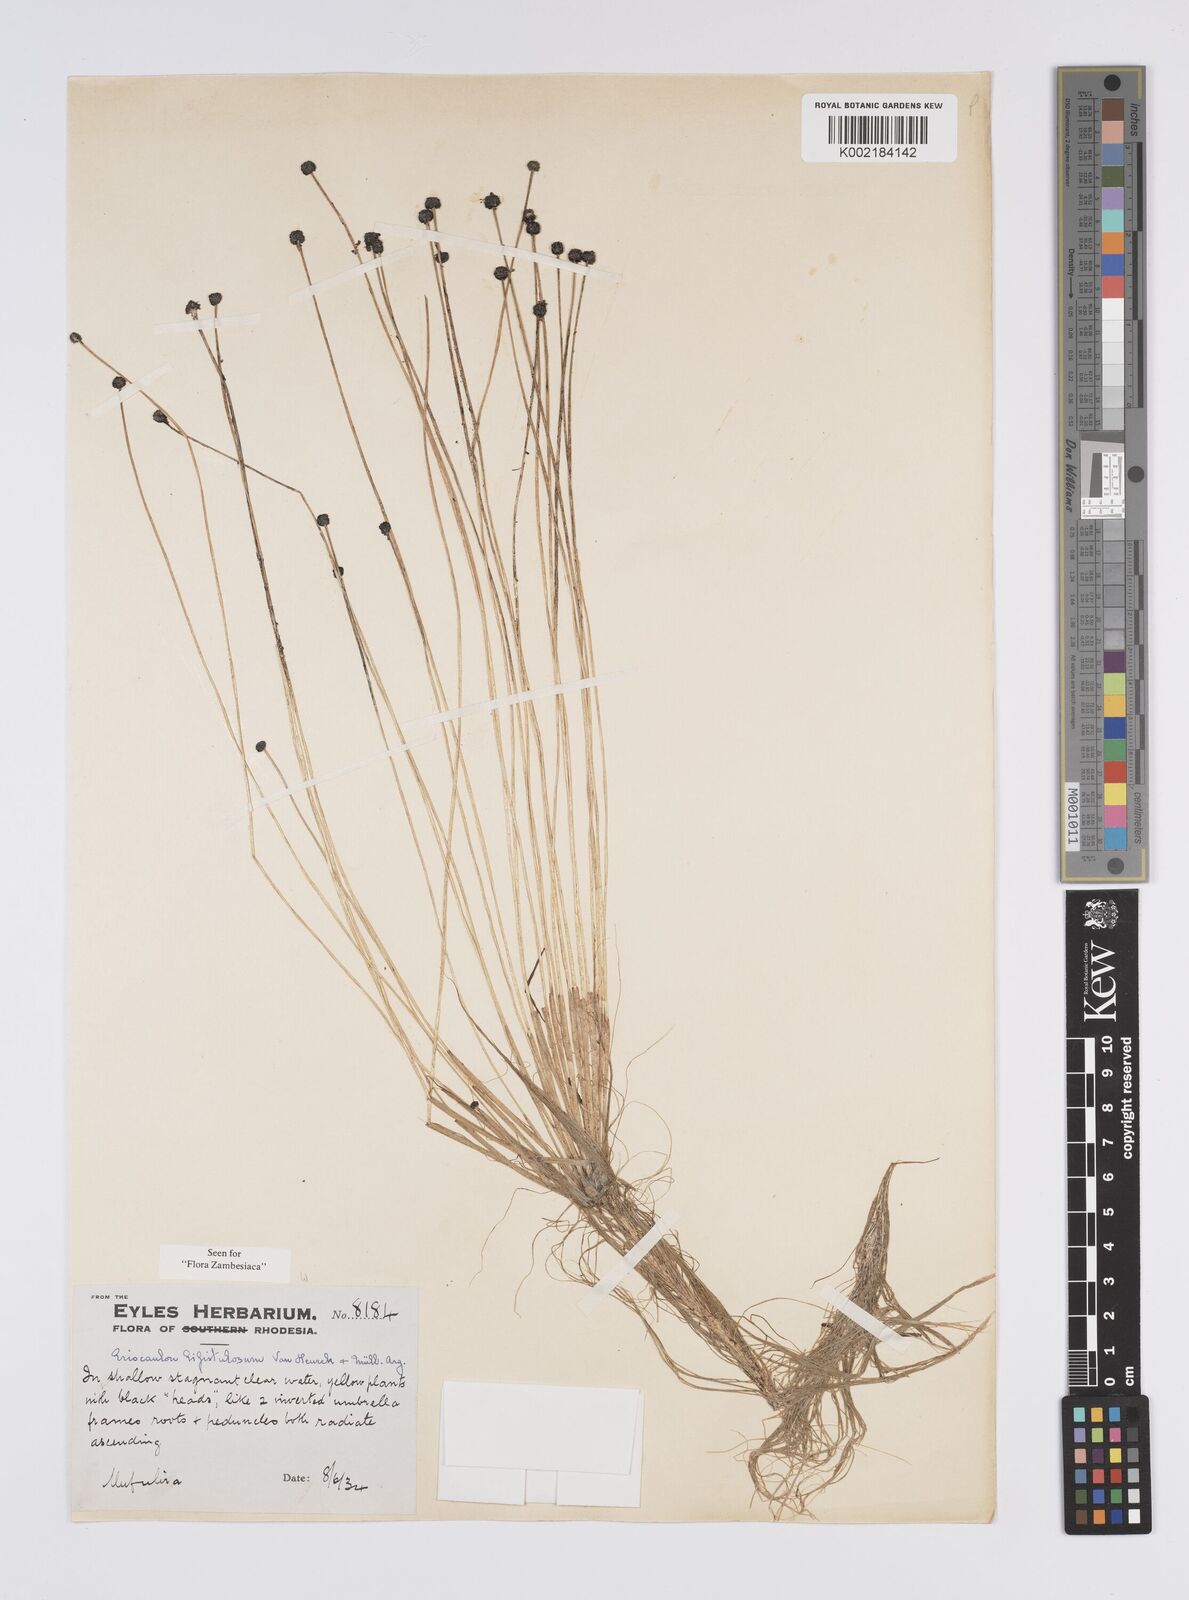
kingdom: Plantae
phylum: Tracheophyta
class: Liliopsida
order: Poales
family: Eriocaulaceae
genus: Eriocaulon
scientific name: Eriocaulon setaceum
